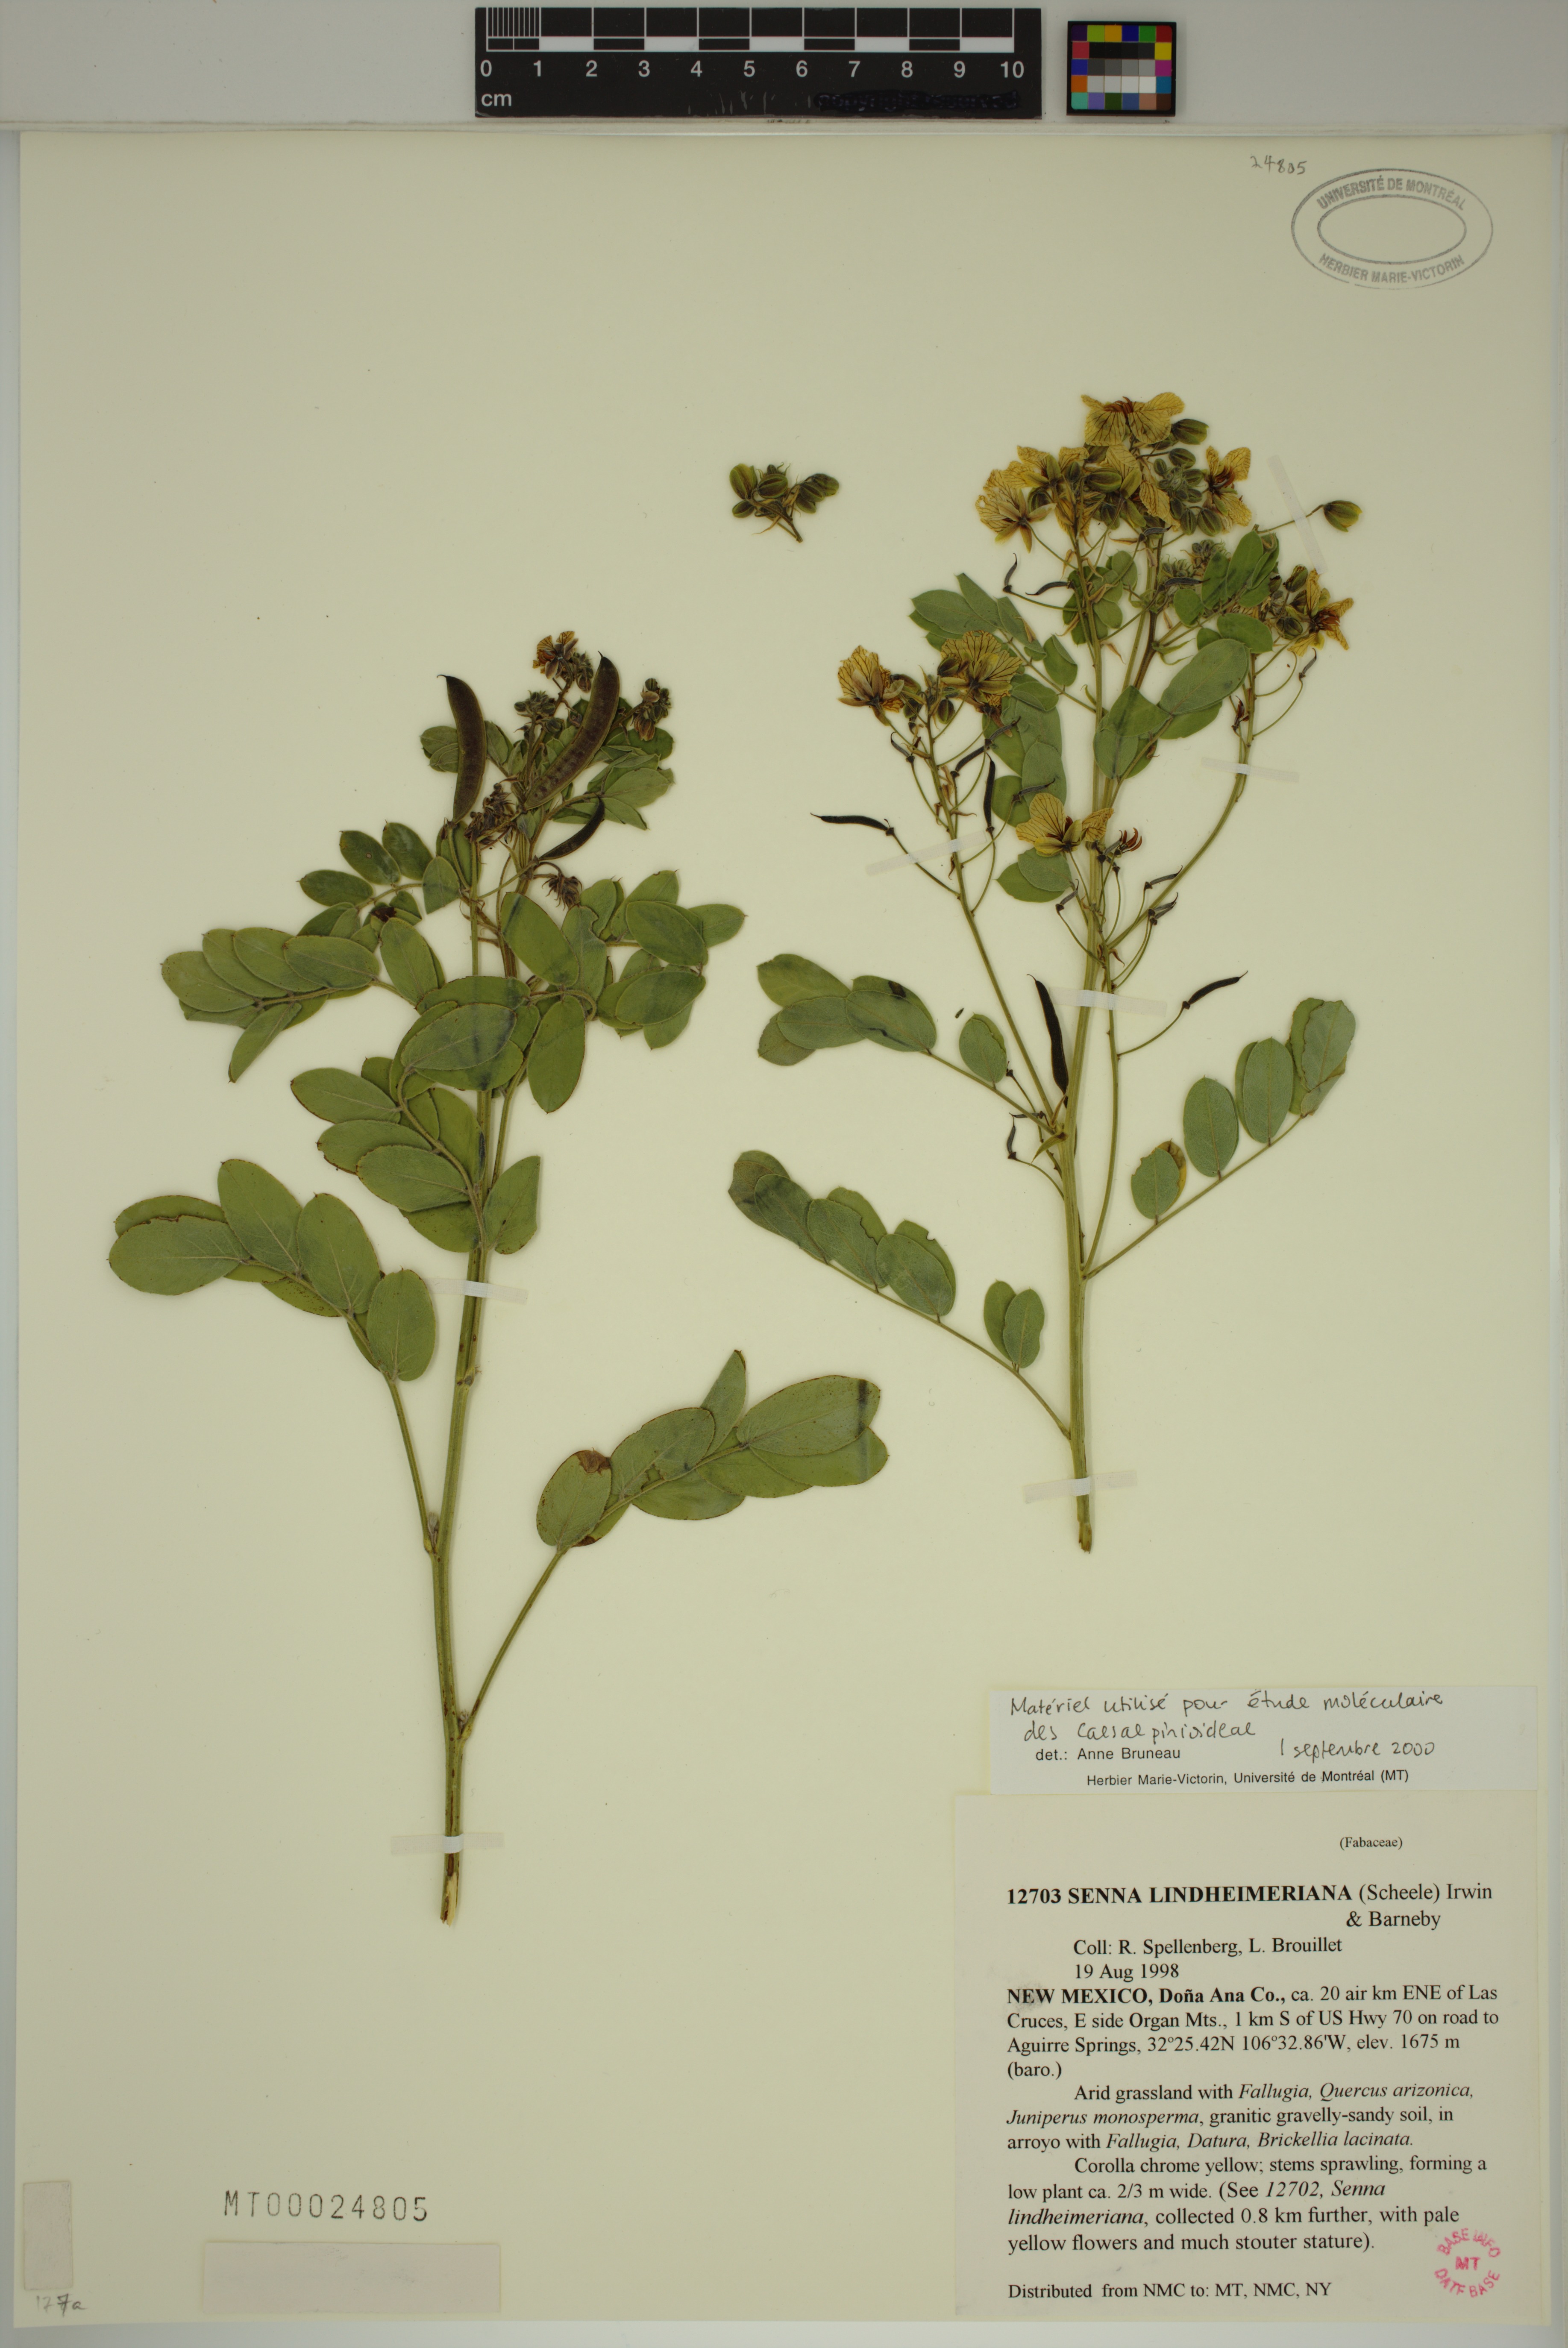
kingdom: Plantae
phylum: Tracheophyta
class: Magnoliopsida
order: Fabales
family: Fabaceae
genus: Senna
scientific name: Senna lindheimeriana
